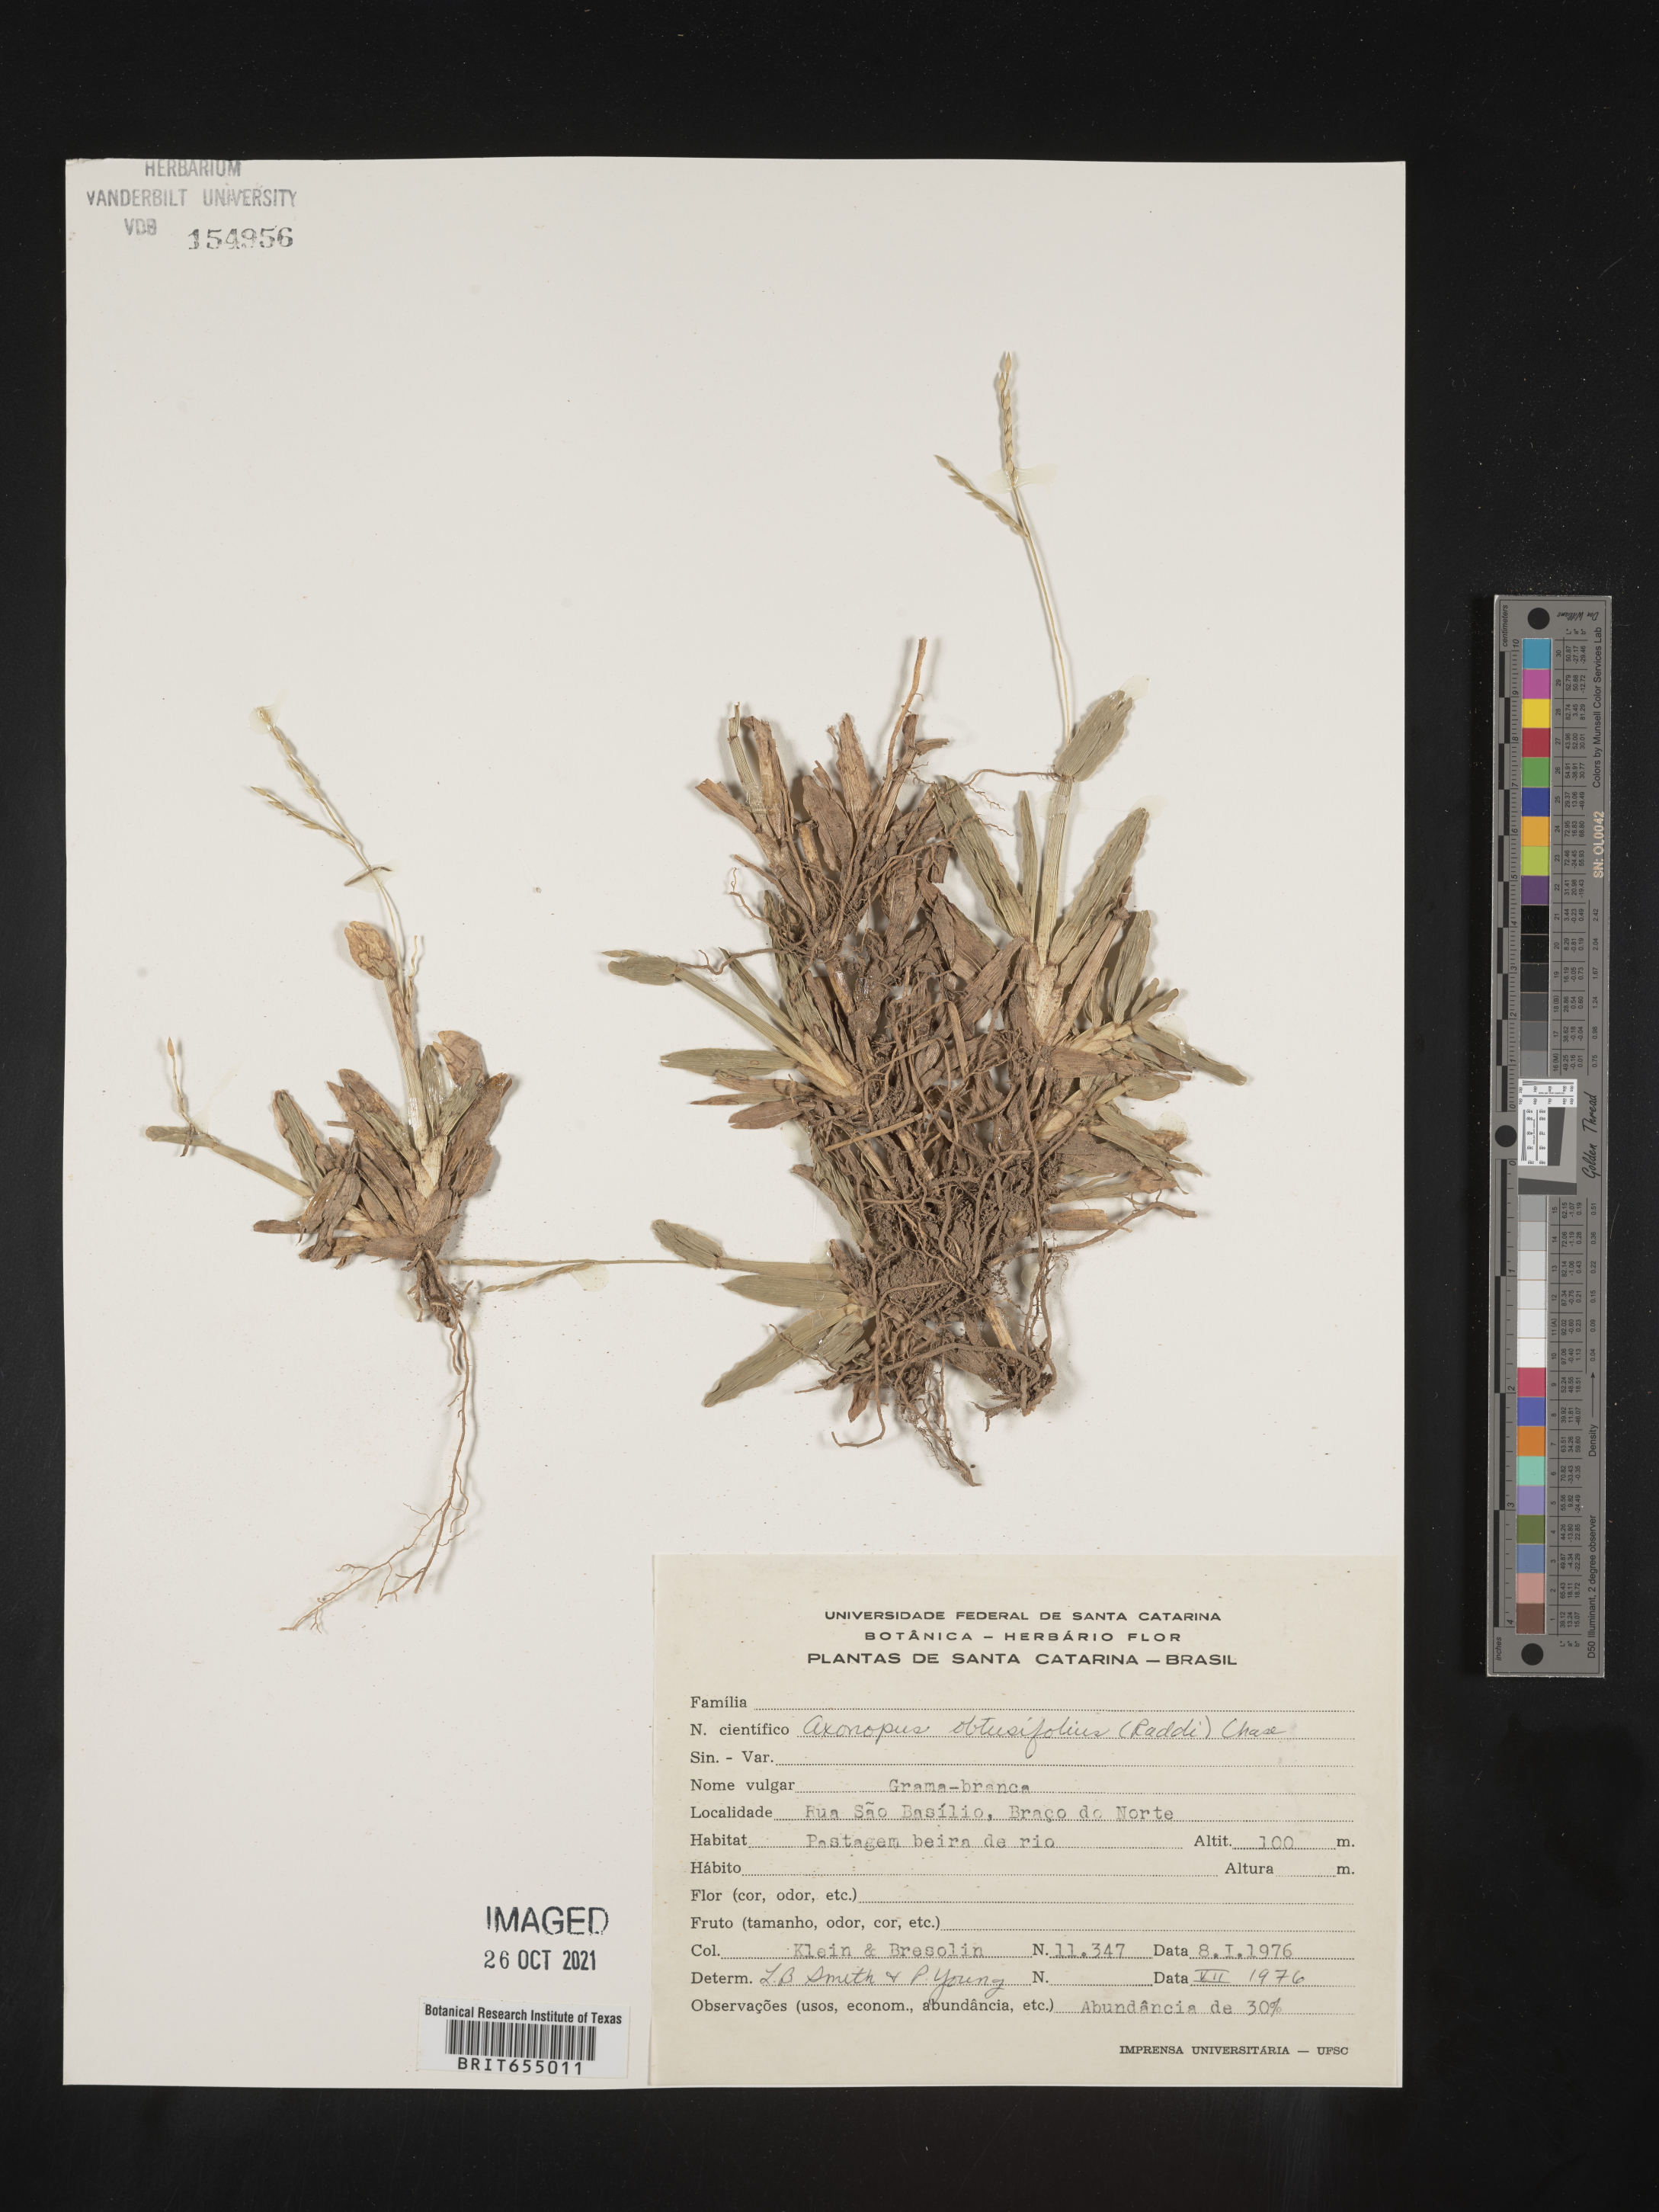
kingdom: Plantae
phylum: Tracheophyta
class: Liliopsida
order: Poales
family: Poaceae
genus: Axonopus
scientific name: Axonopus
